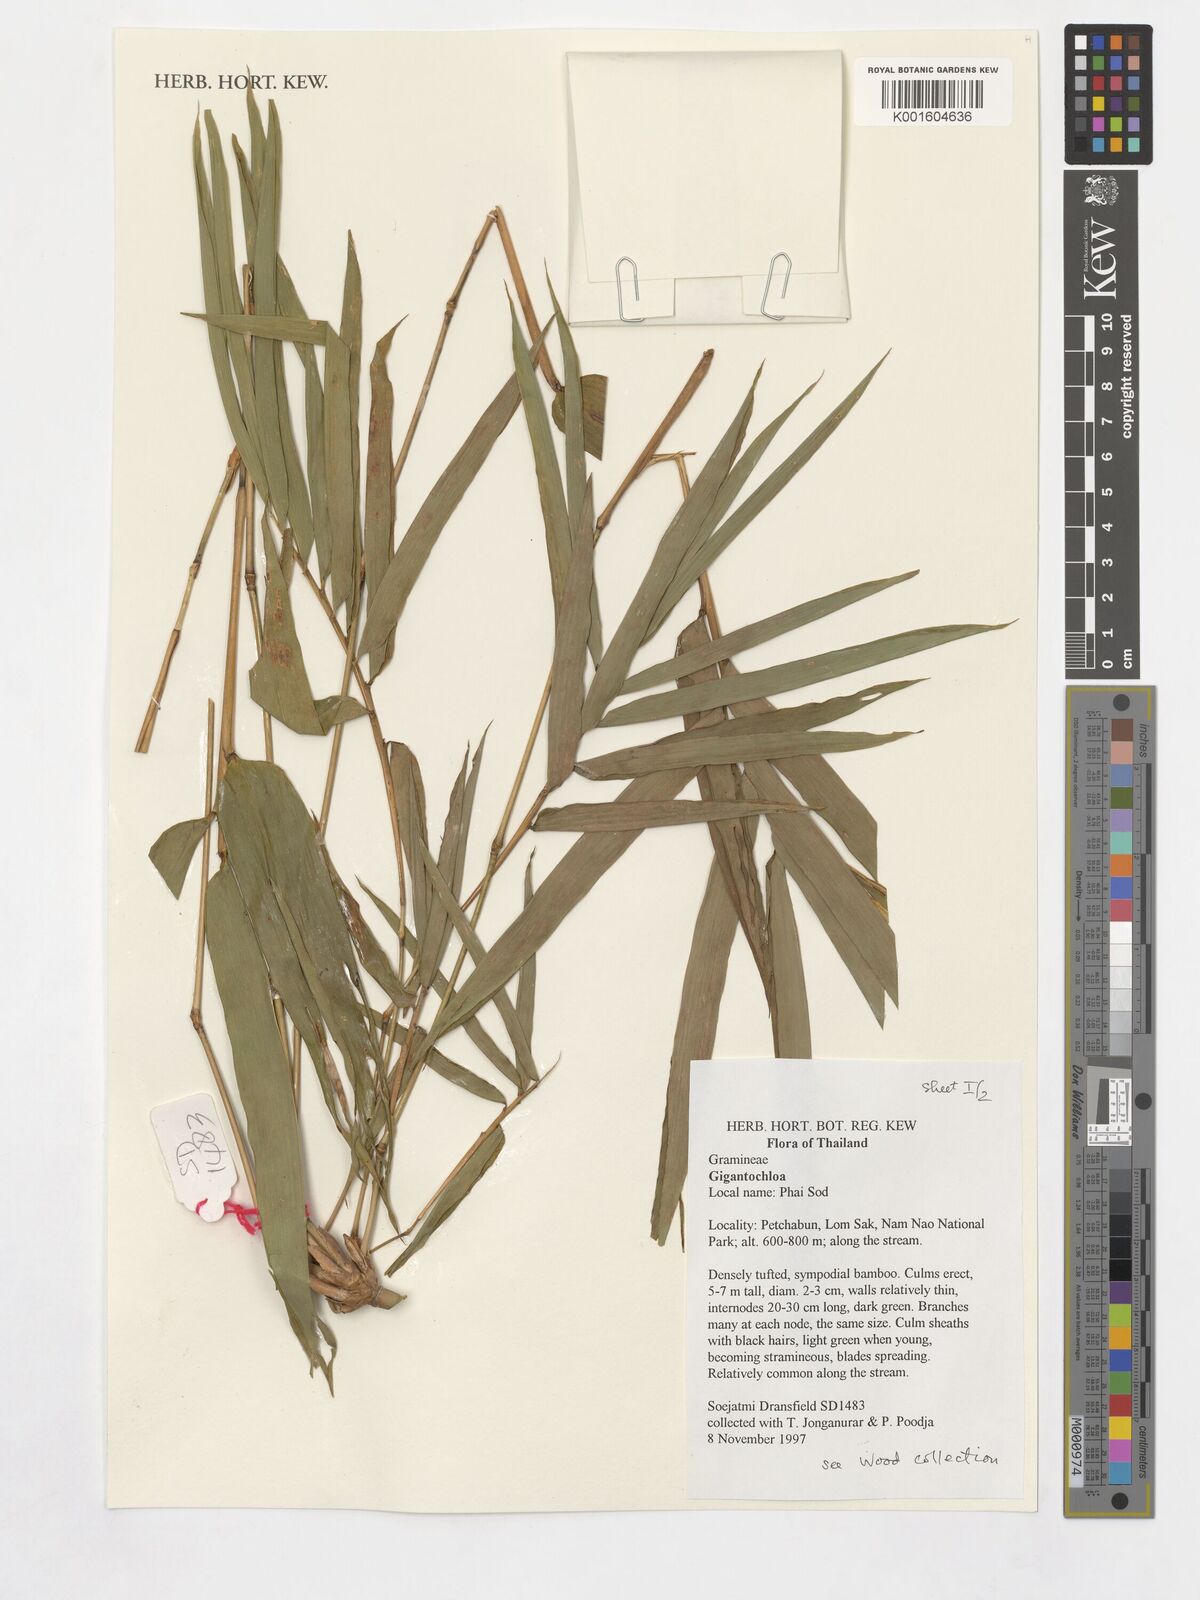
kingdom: Plantae
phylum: Tracheophyta
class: Liliopsida
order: Poales
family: Poaceae
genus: Gigantochloa
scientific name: Gigantochloa
